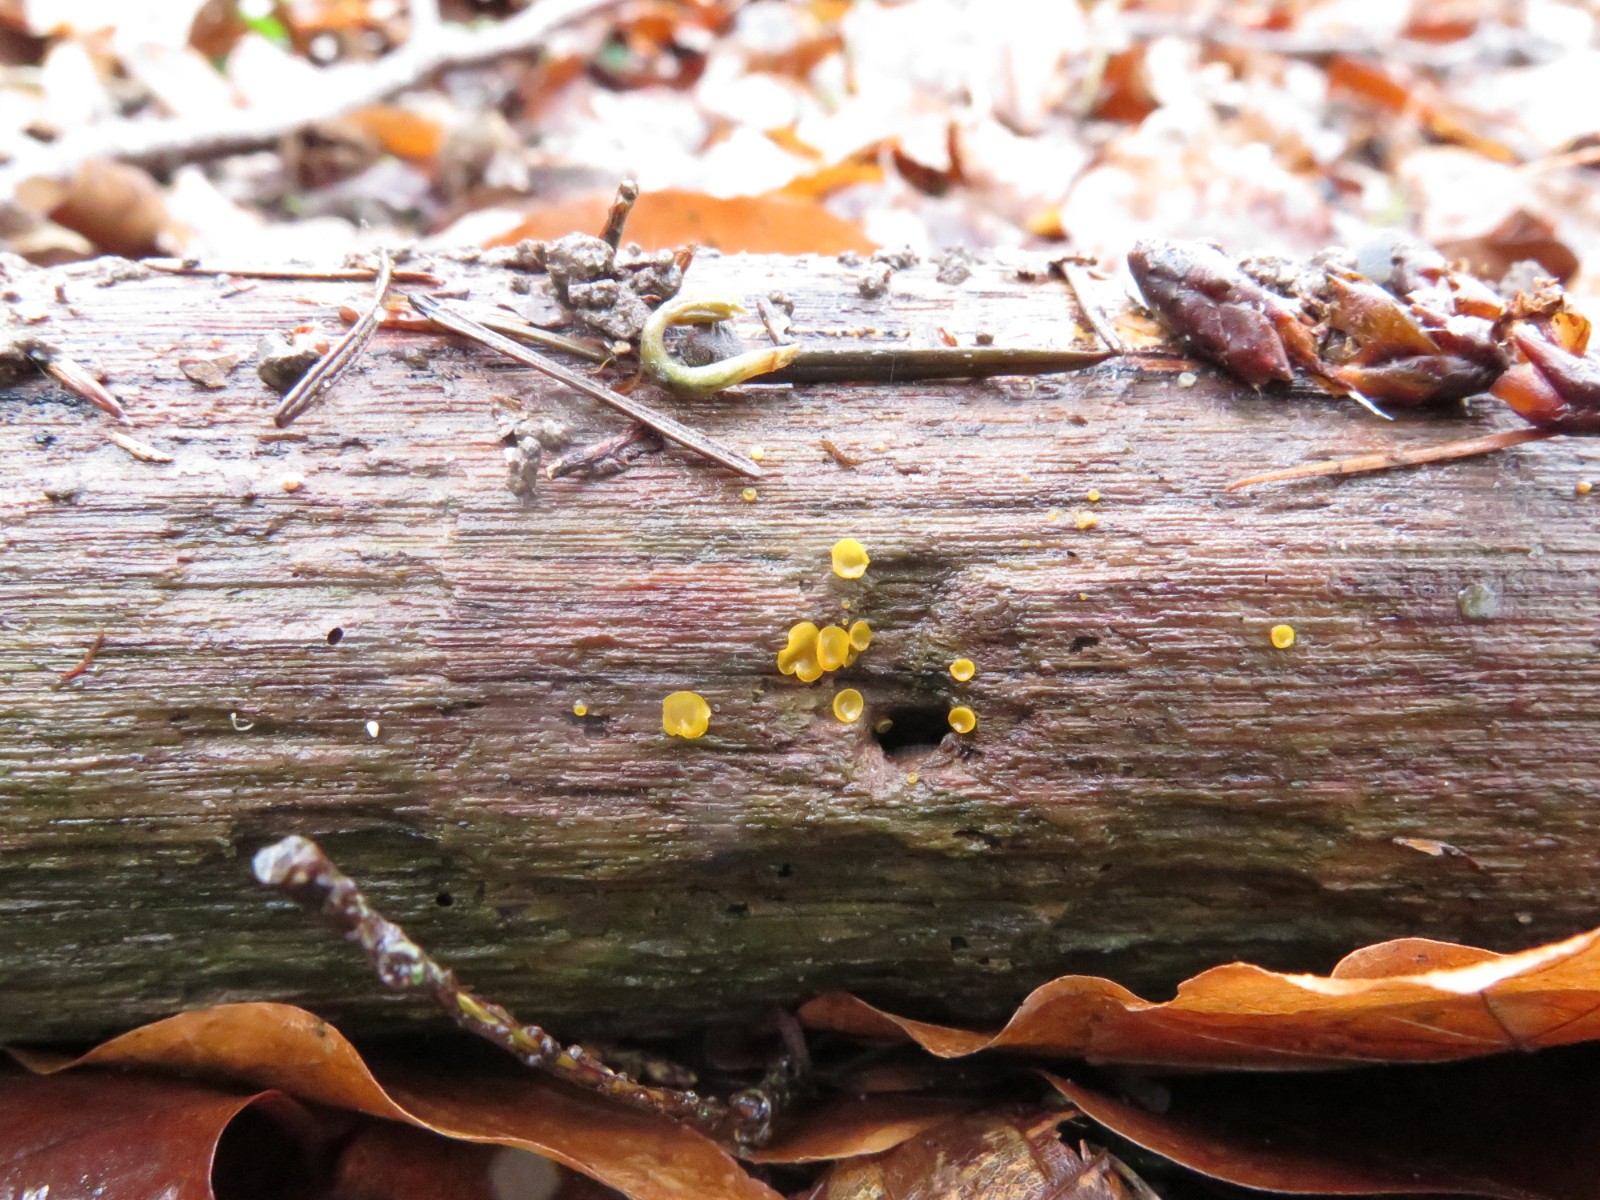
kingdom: Fungi
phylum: Ascomycota
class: Orbiliomycetes
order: Orbiliales
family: Orbiliaceae
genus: Orbilia
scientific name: Orbilia xanthostigma
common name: krumsporet voksskive
